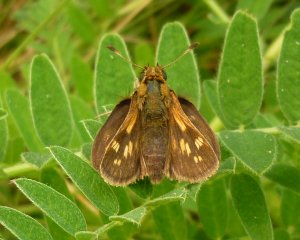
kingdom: Animalia
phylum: Arthropoda
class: Insecta
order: Lepidoptera
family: Hesperiidae
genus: Polites
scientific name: Polites coras
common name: Peck's Skipper
